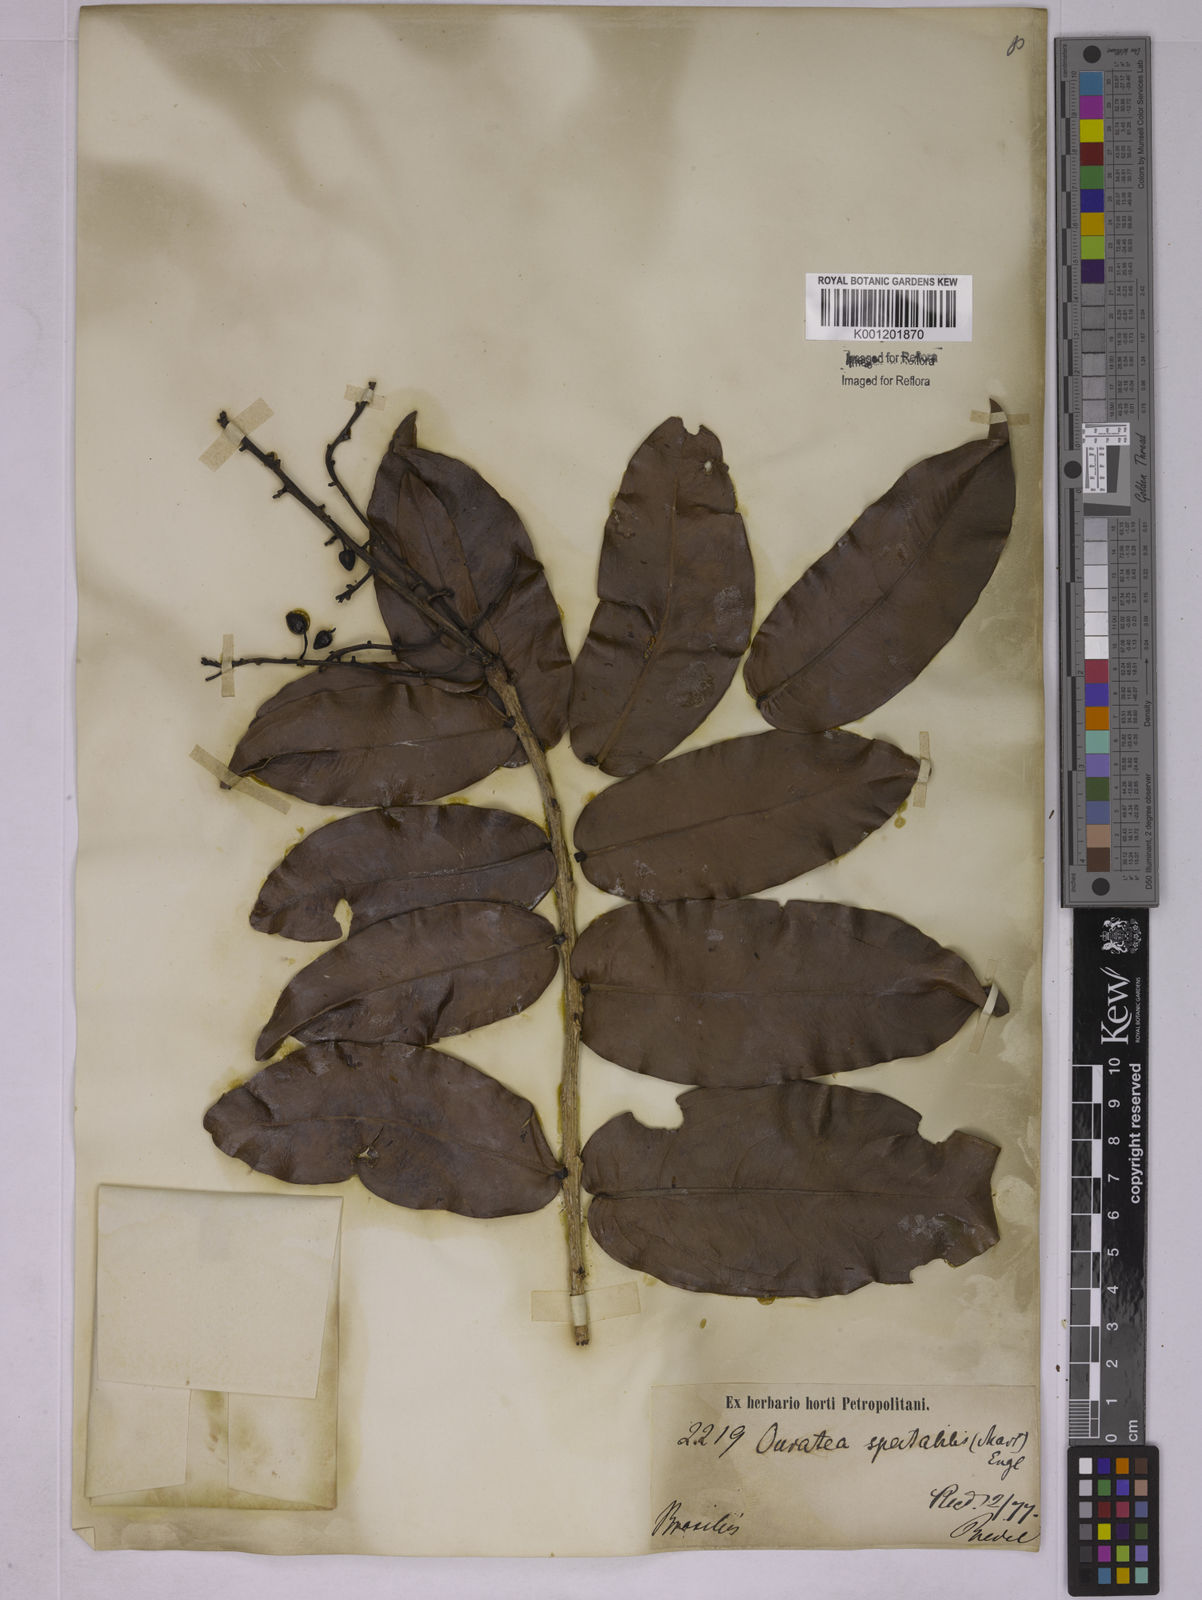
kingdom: Plantae
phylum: Tracheophyta
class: Magnoliopsida
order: Malpighiales
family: Ochnaceae
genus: Ouratea
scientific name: Ouratea spectabilis
